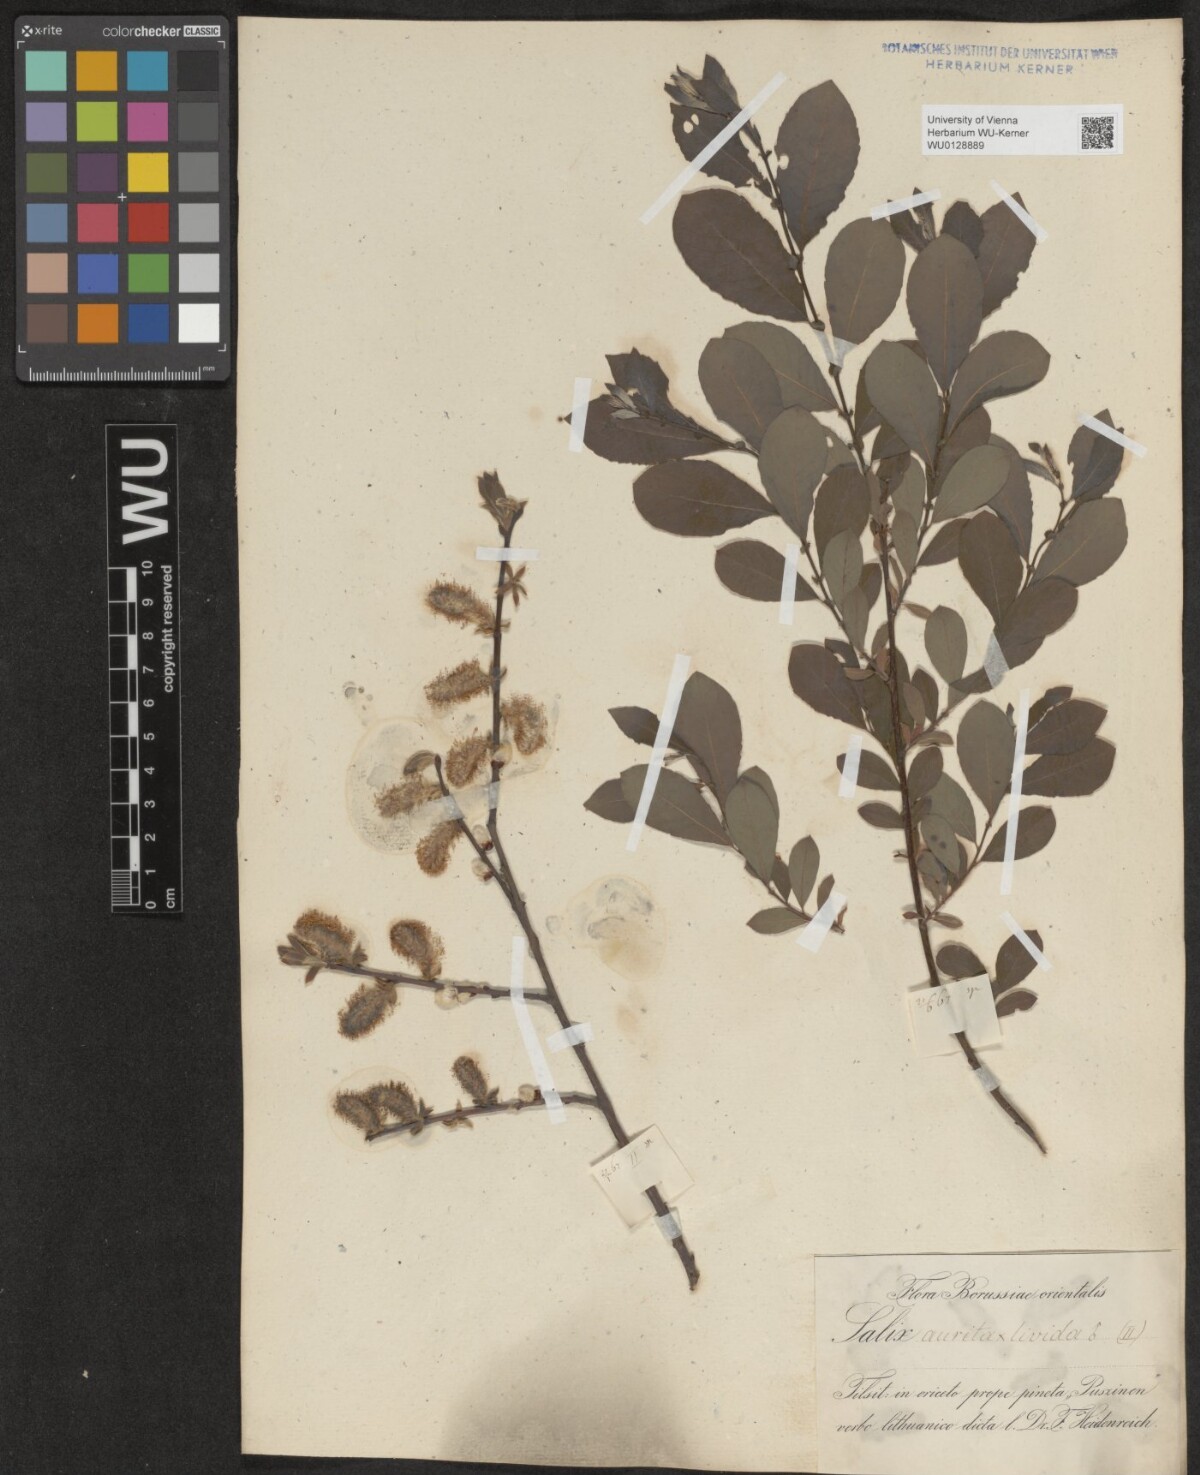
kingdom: Plantae
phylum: Tracheophyta
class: Magnoliopsida
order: Malpighiales
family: Salicaceae
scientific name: Salicaceae
